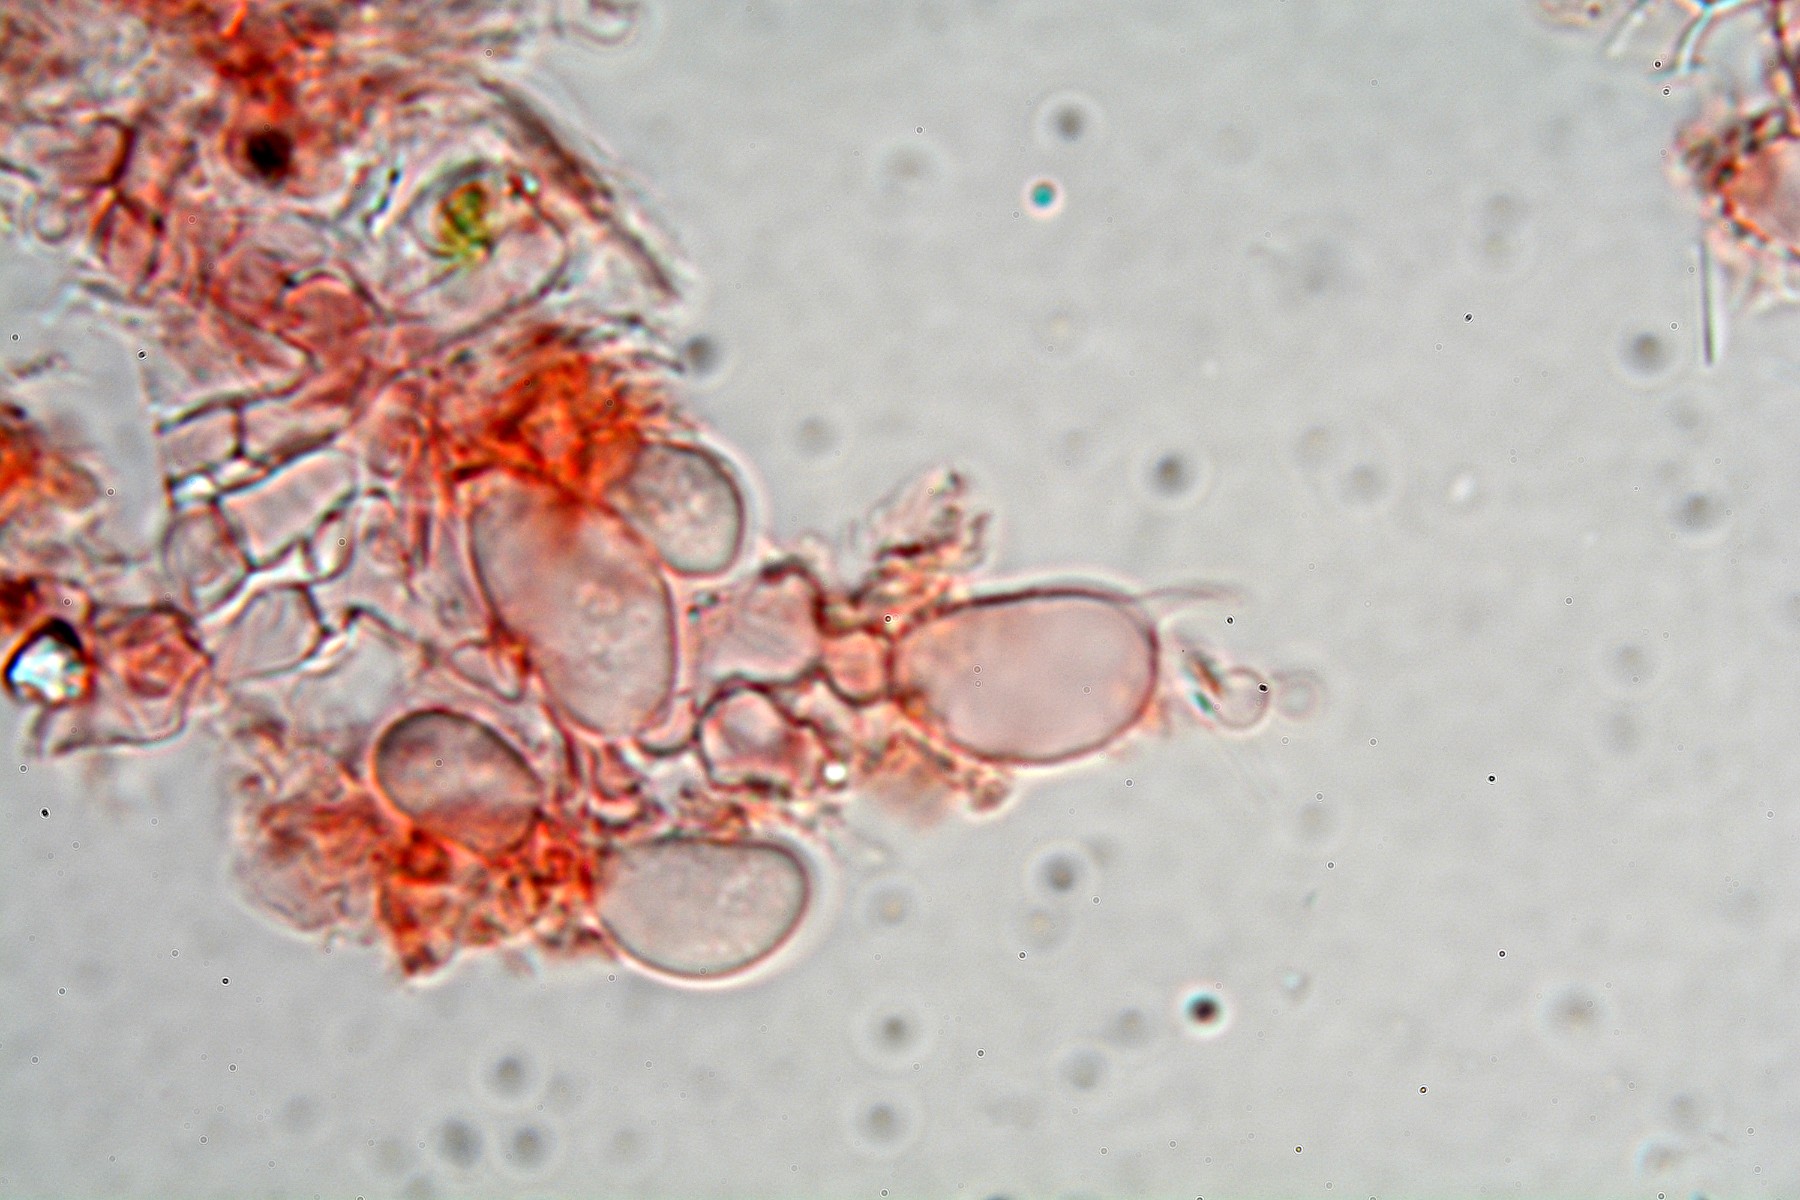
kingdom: Fungi
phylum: Basidiomycota
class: Agaricomycetes
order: Trechisporales
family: Hydnodontaceae
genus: Brevicellicium
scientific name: Brevicellicium olivascens
